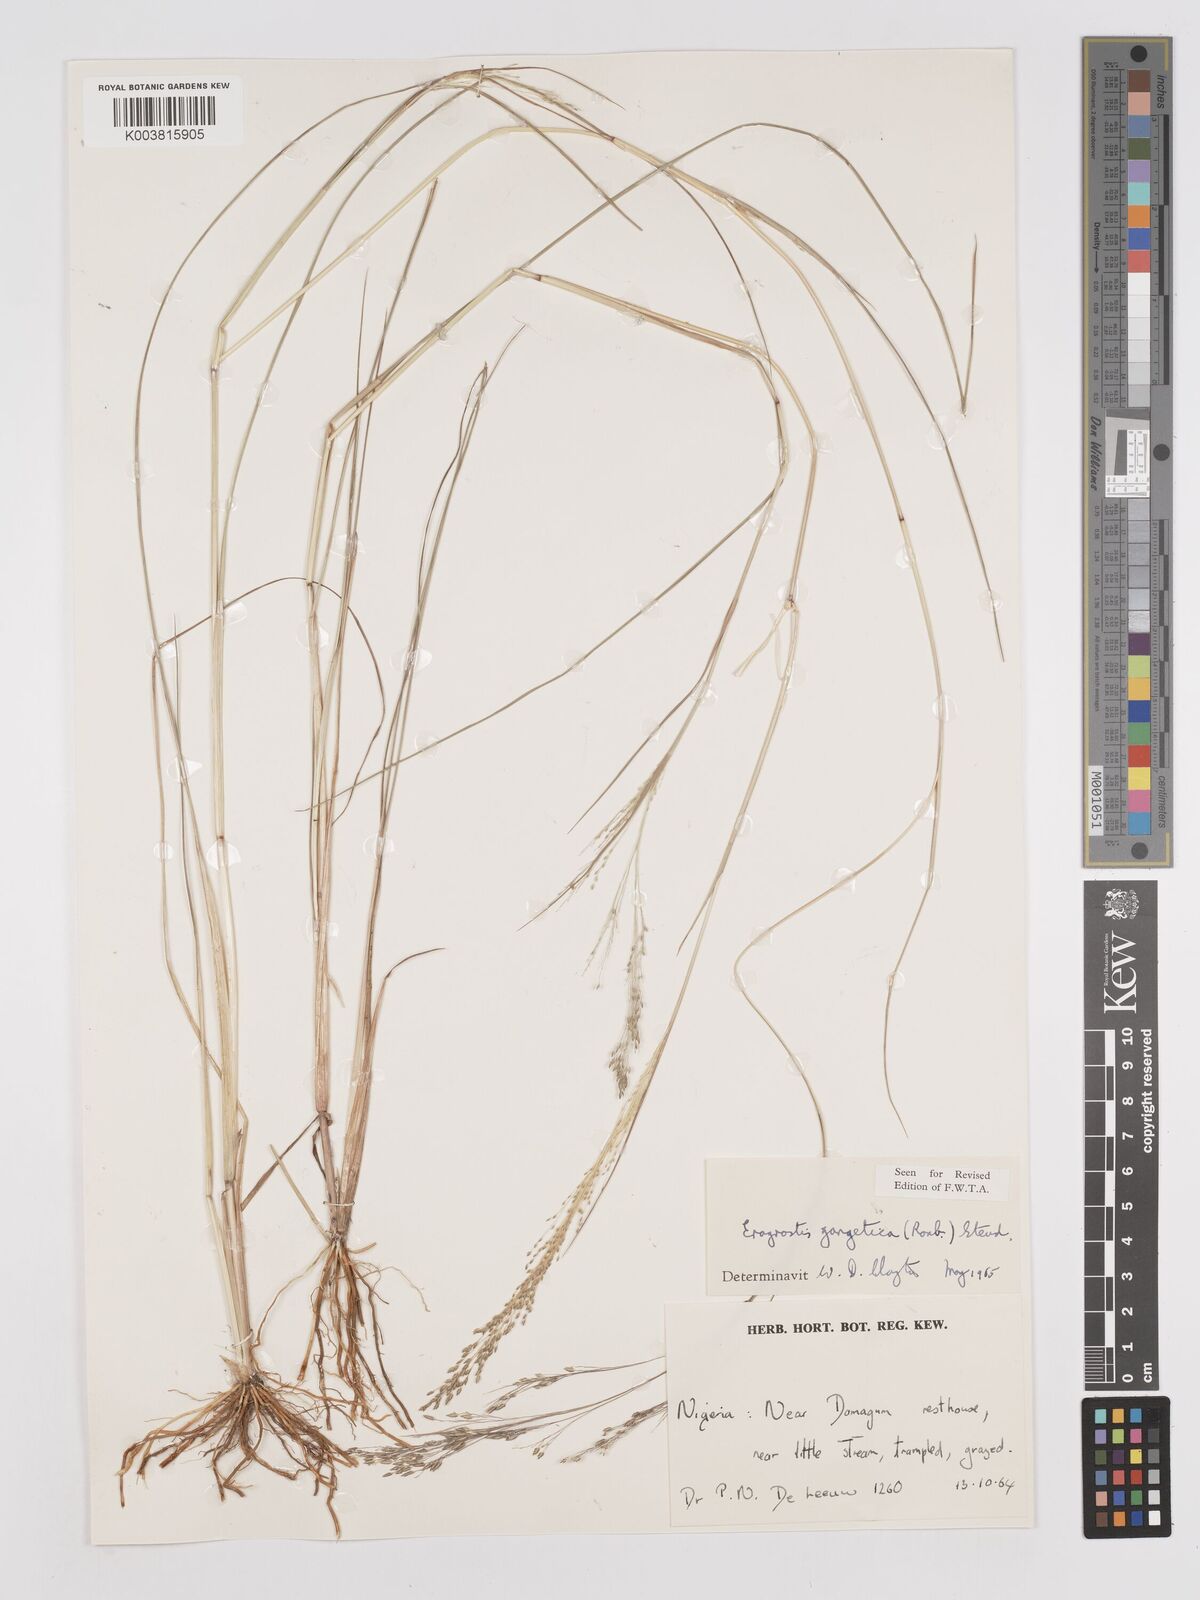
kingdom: Plantae
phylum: Tracheophyta
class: Liliopsida
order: Poales
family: Poaceae
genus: Eragrostis
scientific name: Eragrostis gangetica
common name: Slimflower lovegrass
